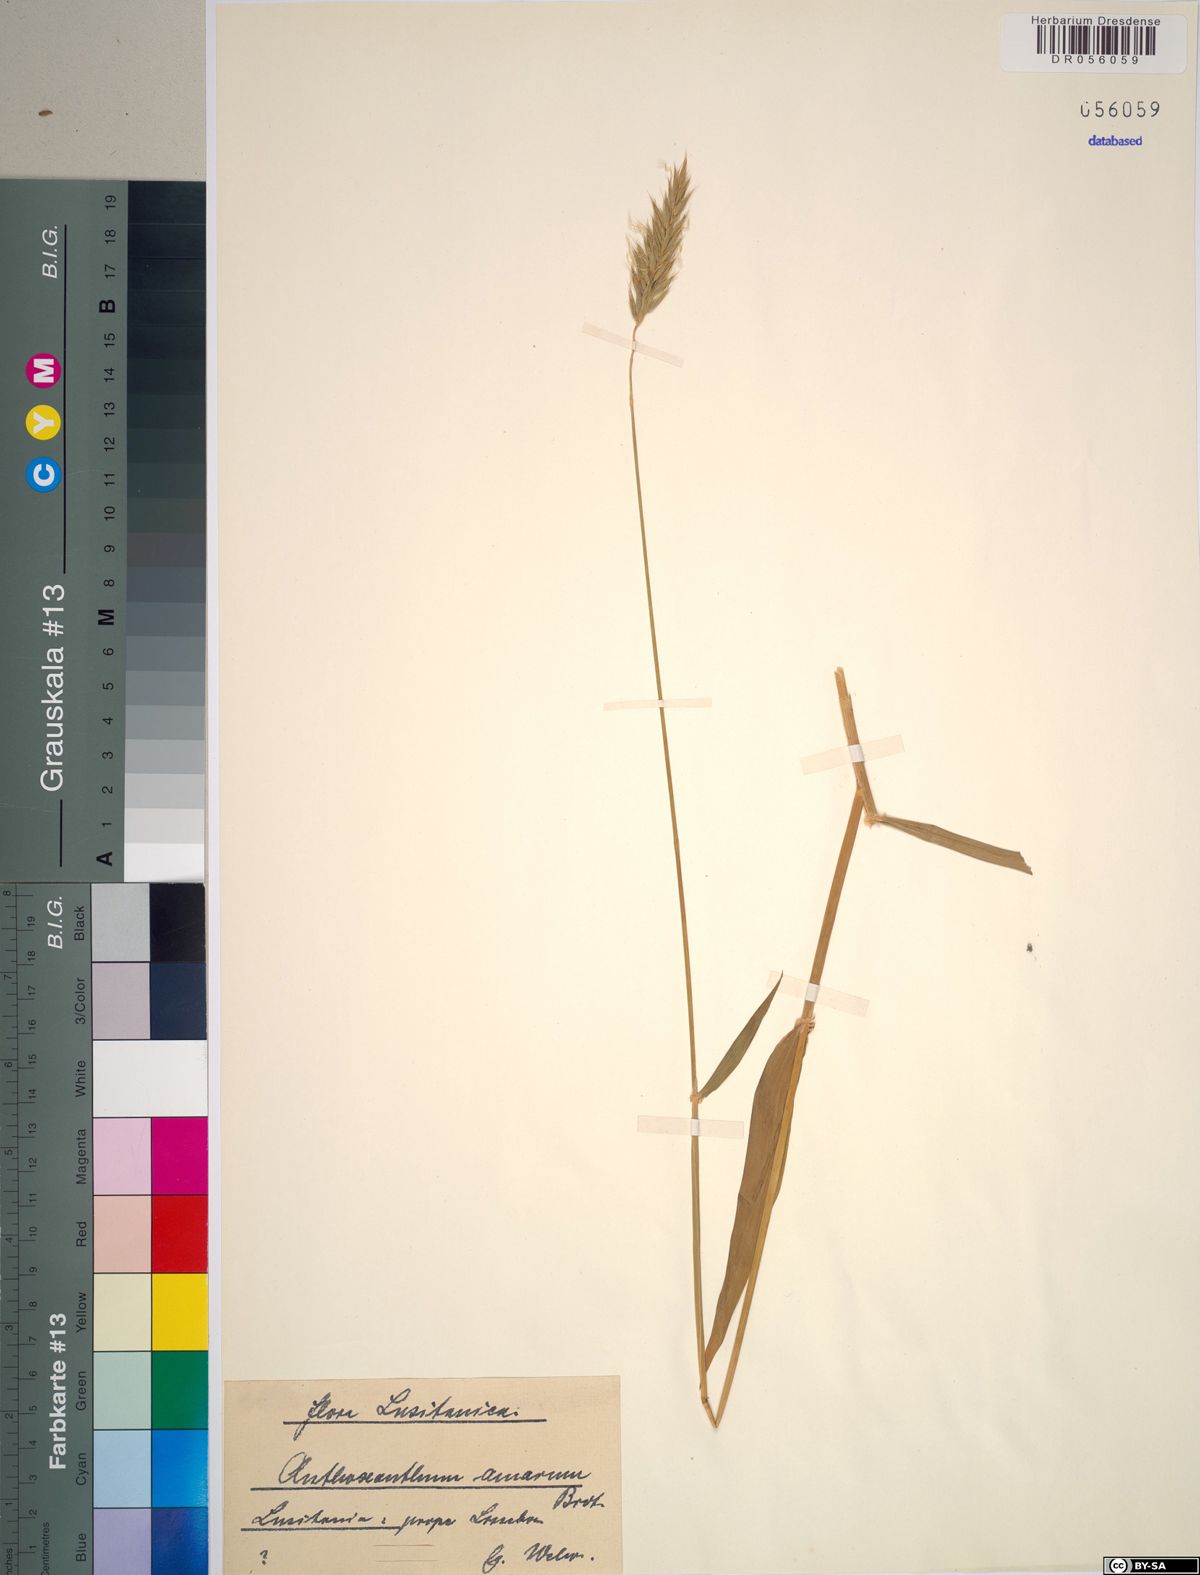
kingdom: Plantae
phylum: Tracheophyta
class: Liliopsida
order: Poales
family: Poaceae
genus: Anthoxanthum
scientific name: Anthoxanthum amarum
